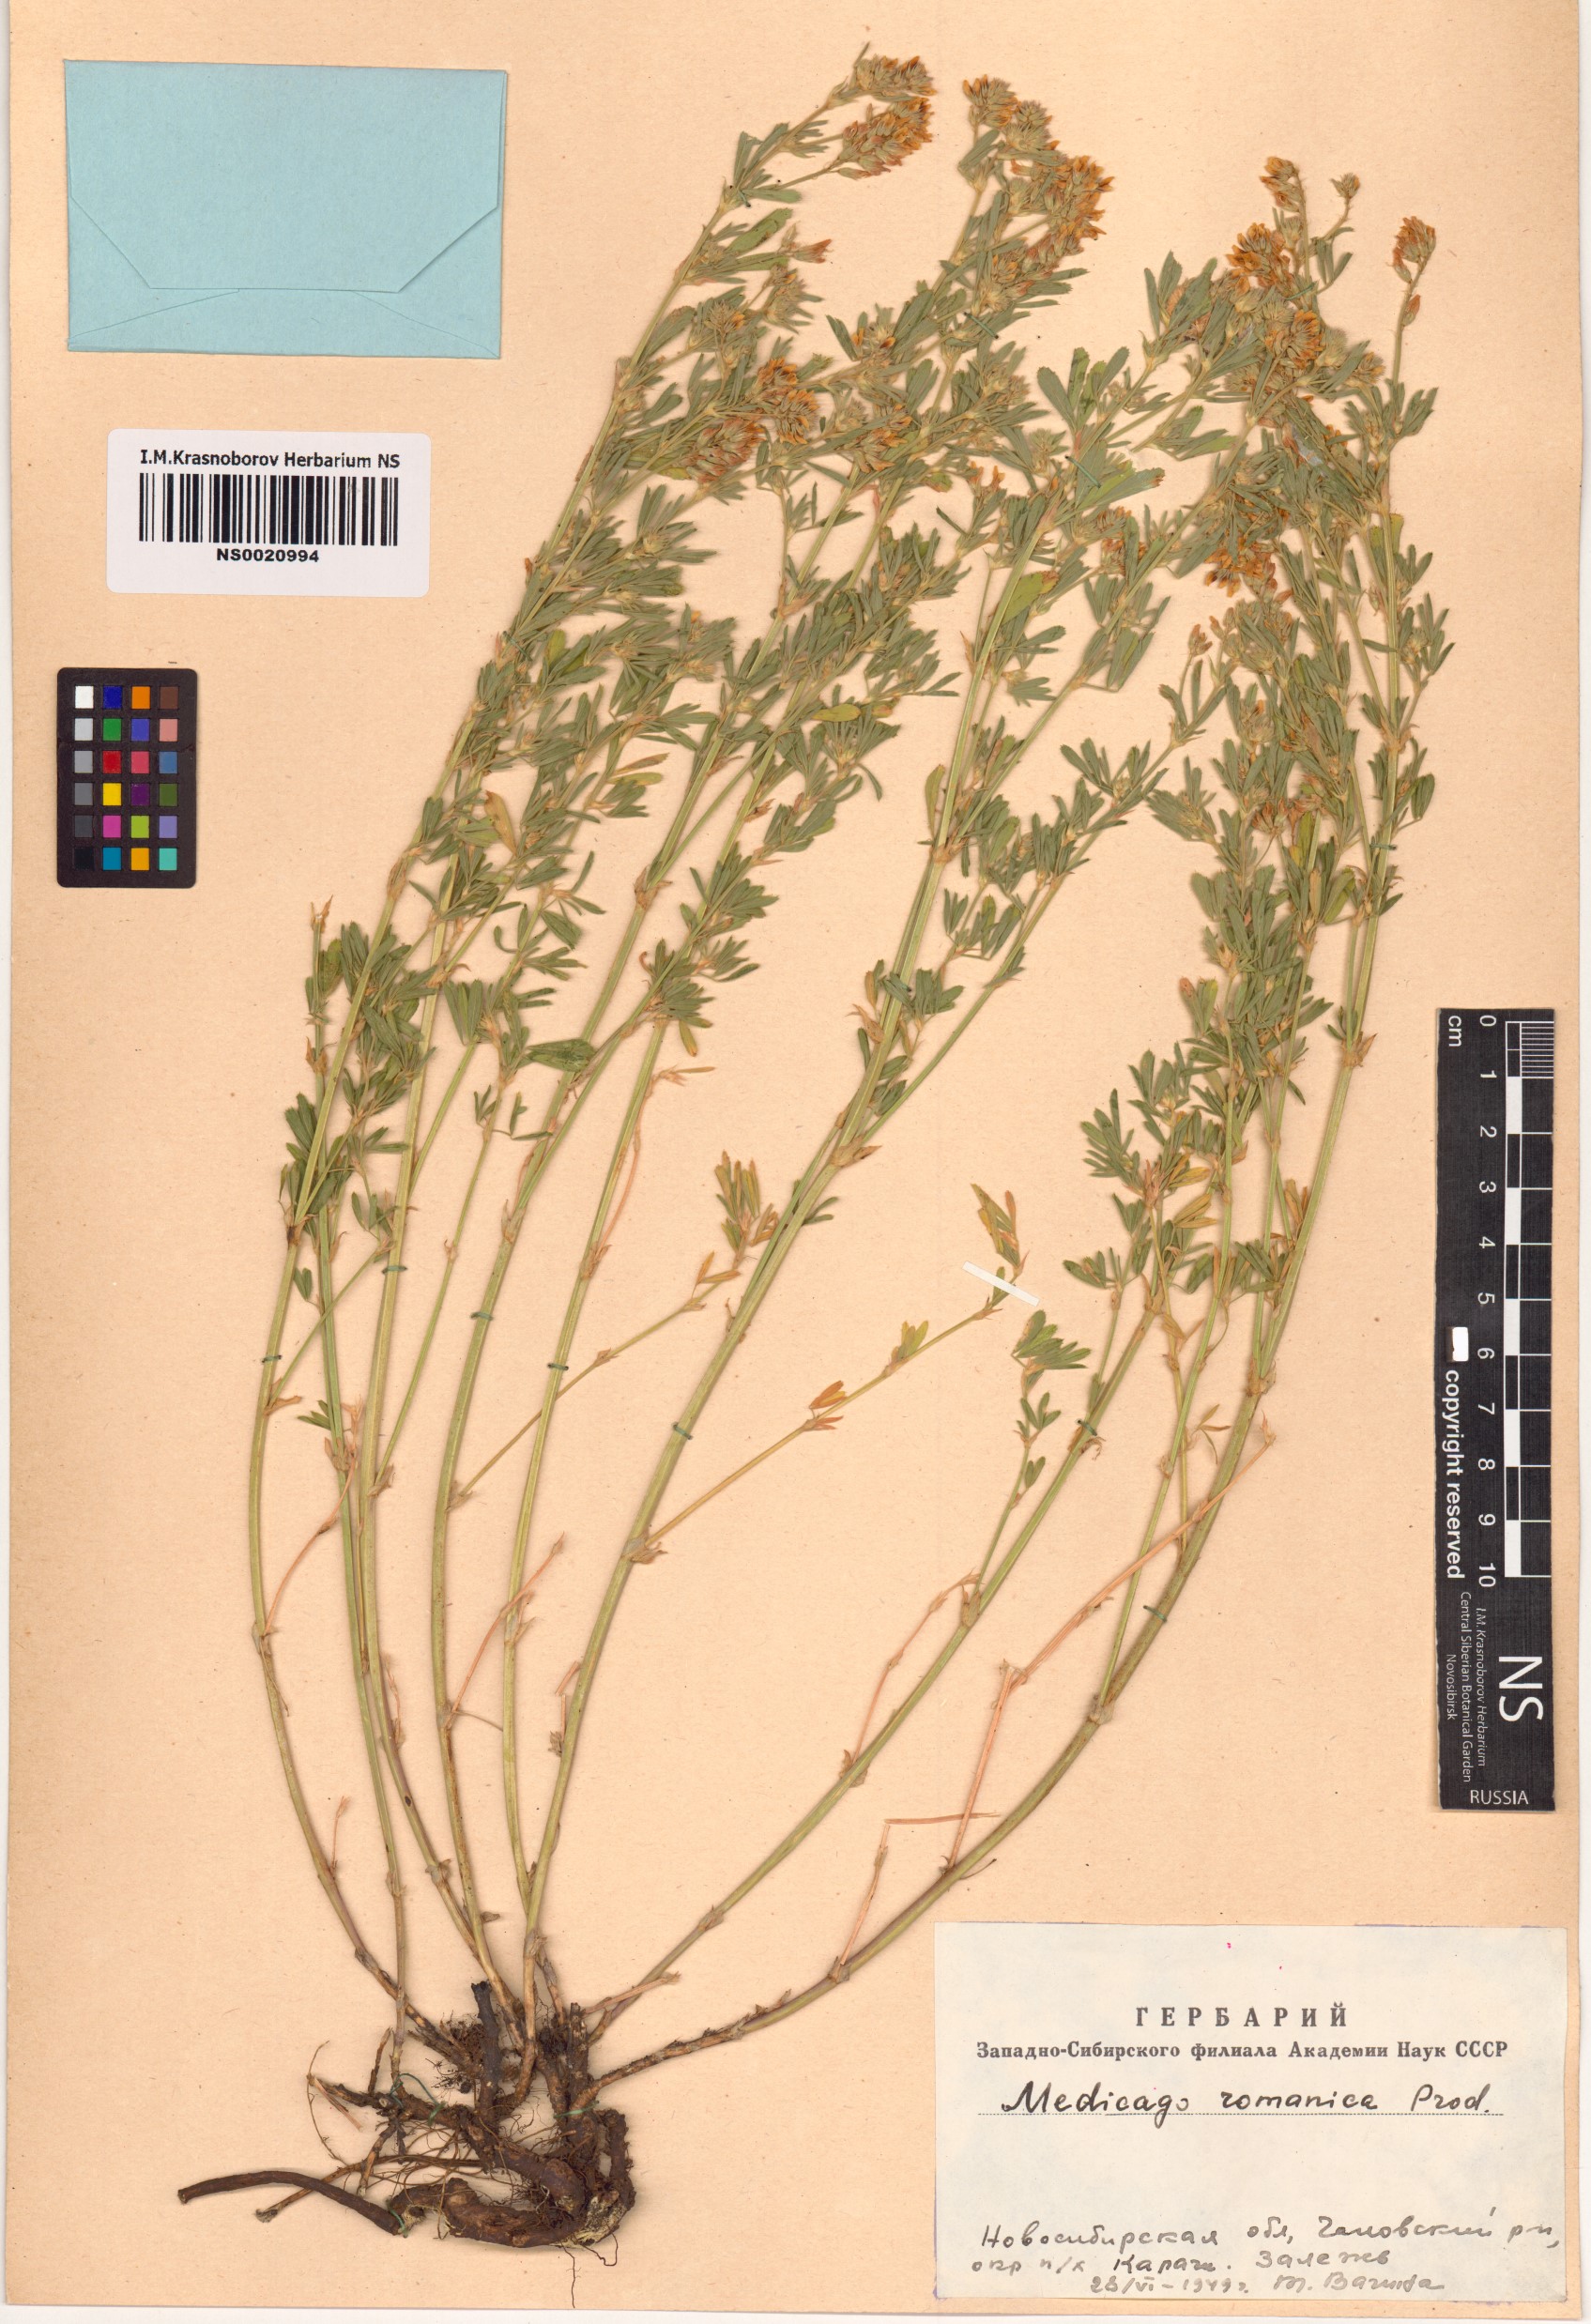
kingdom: Plantae
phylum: Tracheophyta
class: Magnoliopsida
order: Fabales
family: Fabaceae
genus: Medicago
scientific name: Medicago falcata
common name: Sickle medick
